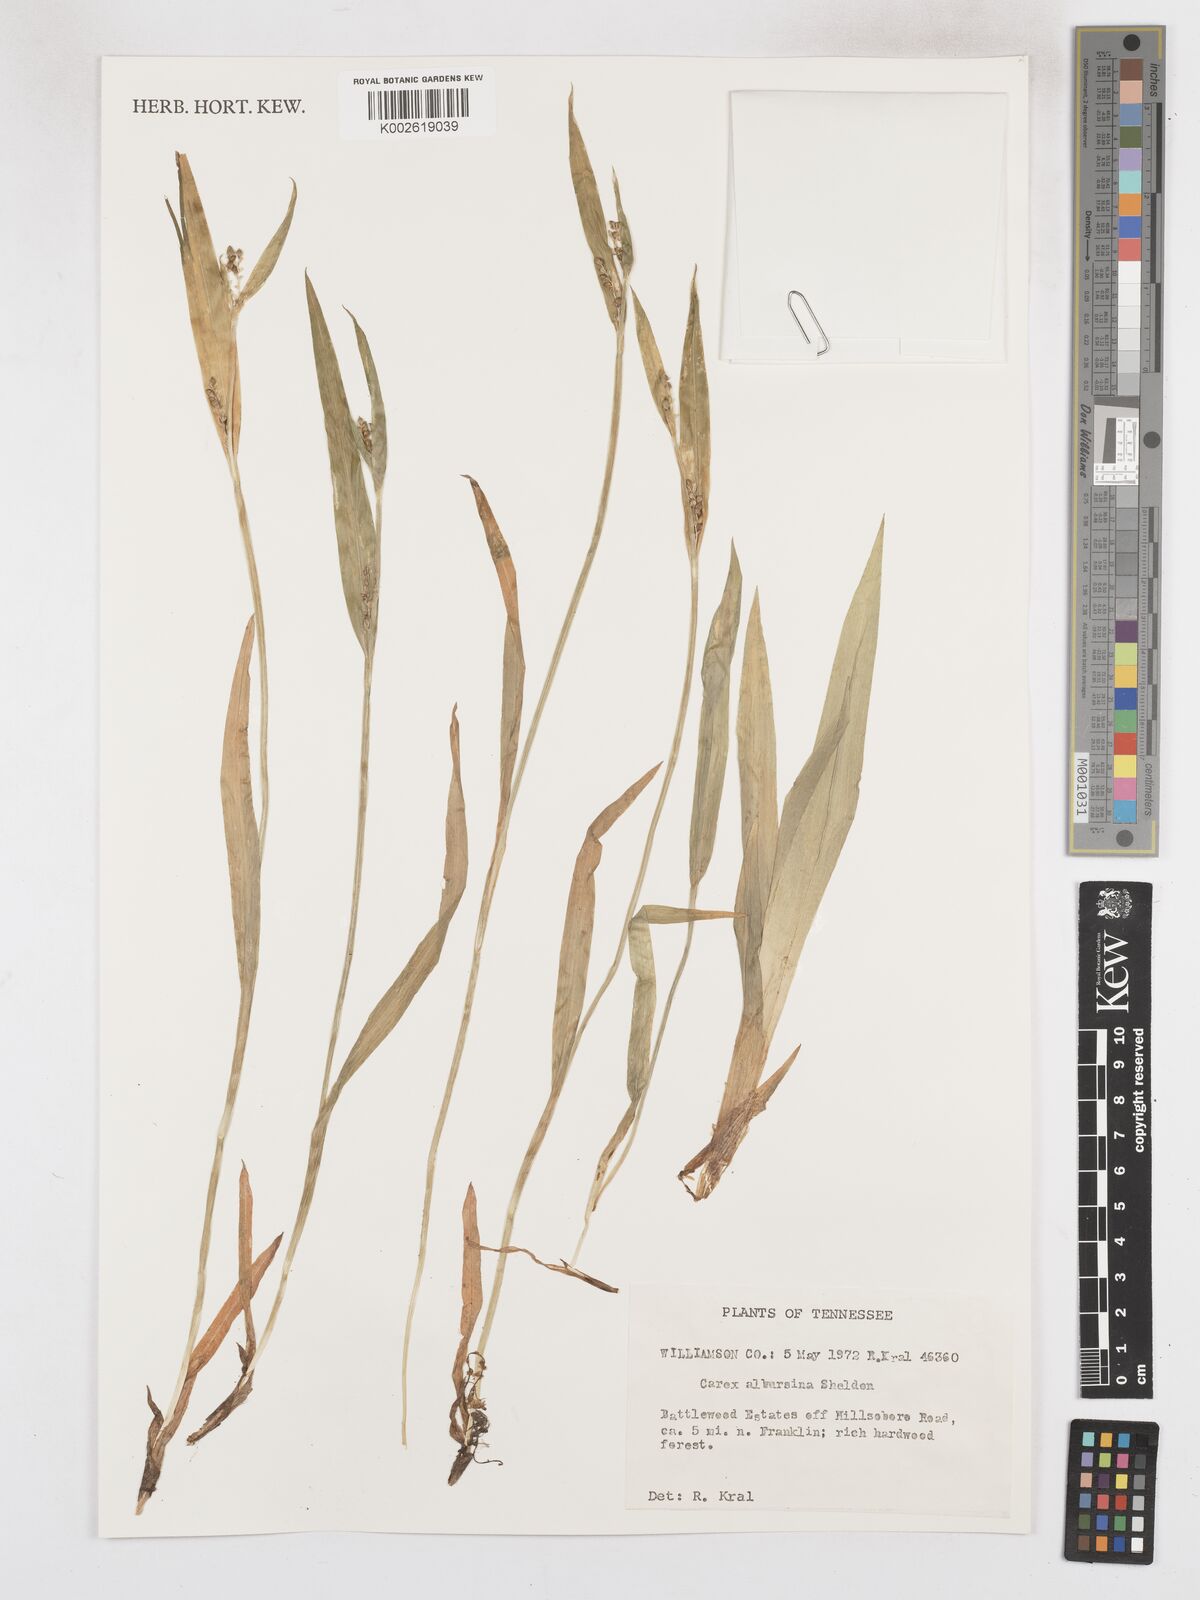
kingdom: Plantae
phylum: Tracheophyta
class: Liliopsida
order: Poales
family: Cyperaceae
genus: Carex
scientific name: Carex albursina
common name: Blunt-scale wood sedge
